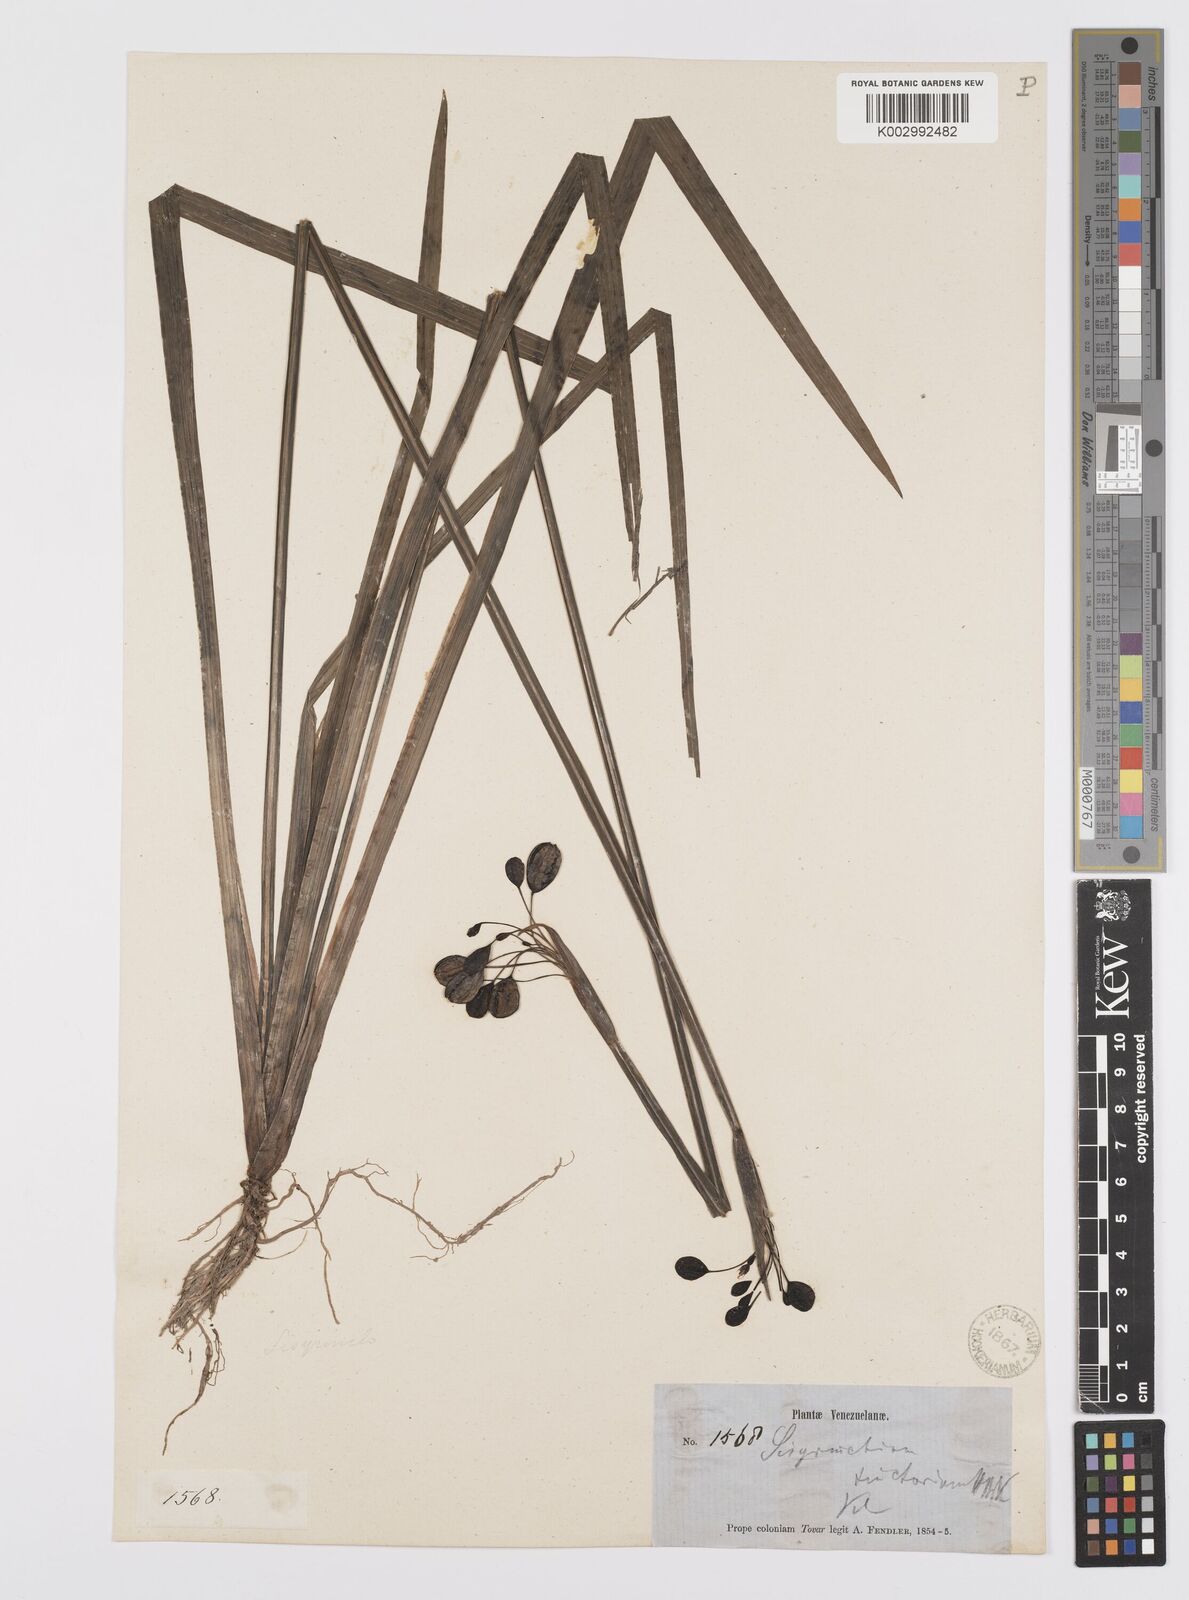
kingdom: Plantae
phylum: Tracheophyta
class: Liliopsida
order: Asparagales
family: Iridaceae
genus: Sisyrinchium
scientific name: Sisyrinchium tinctorium
